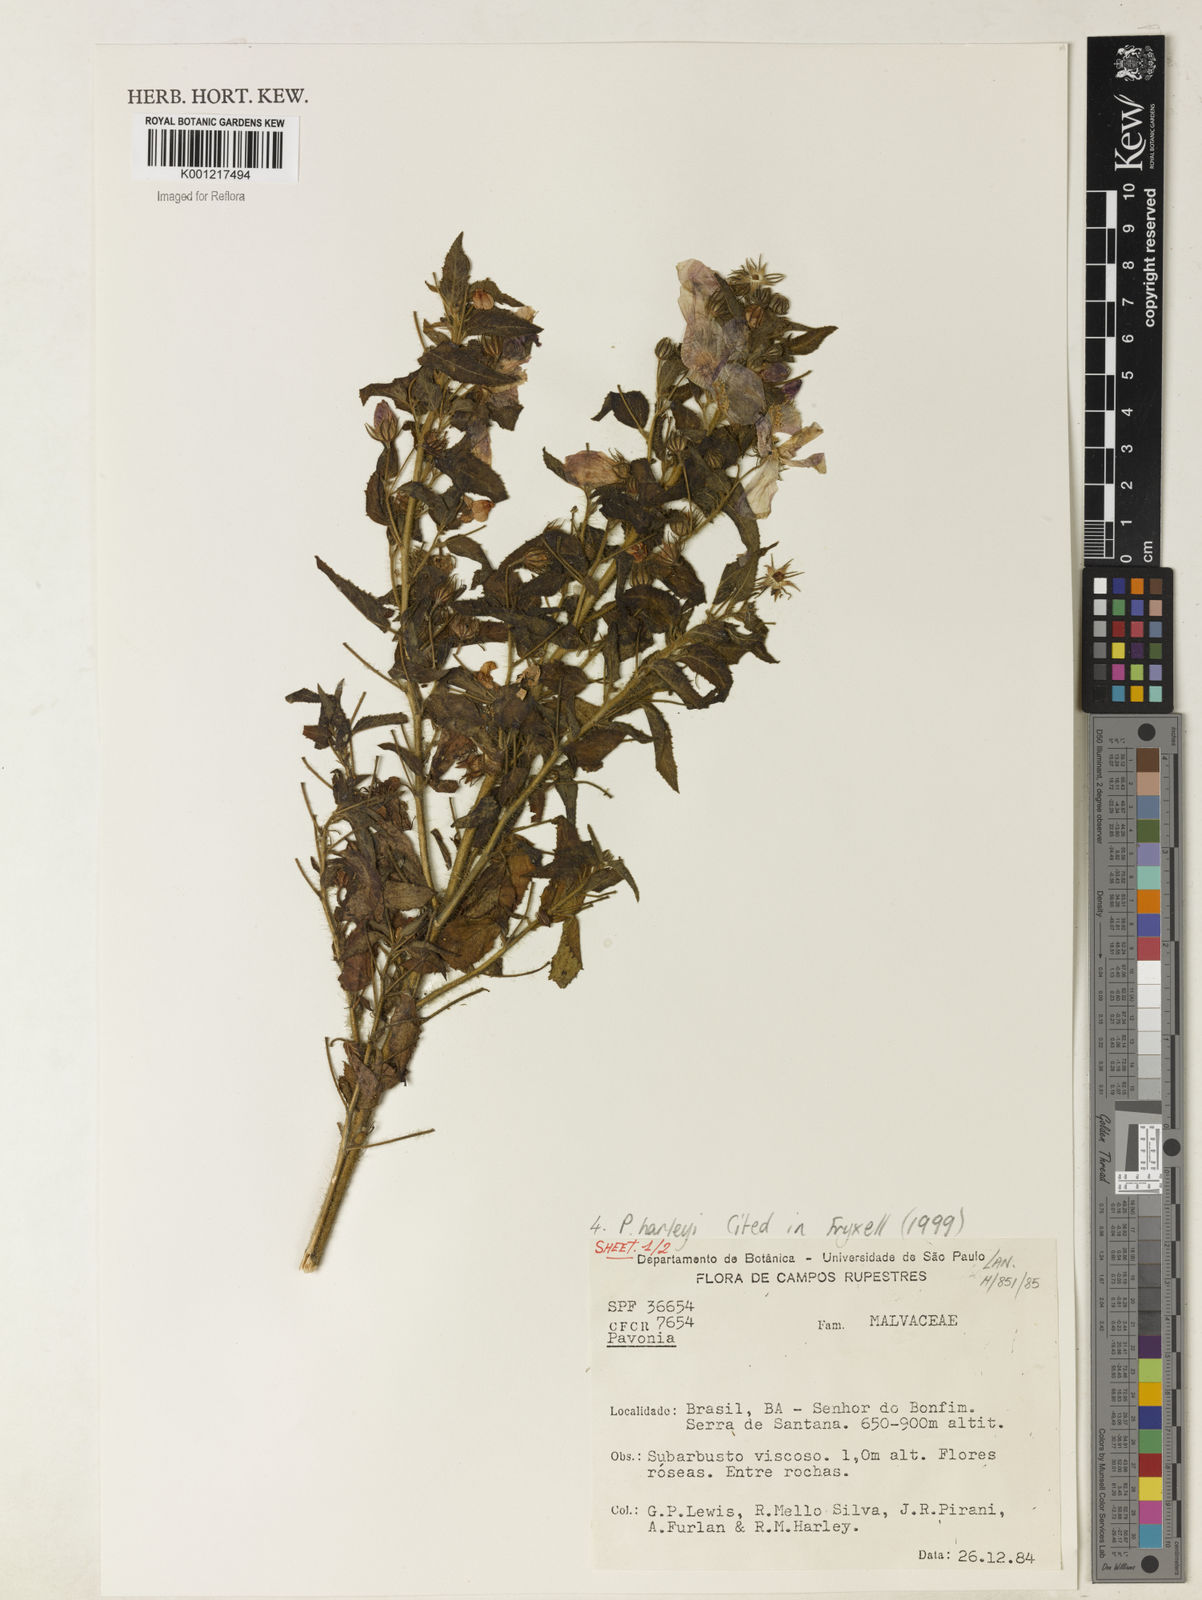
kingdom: Plantae
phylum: Tracheophyta
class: Magnoliopsida
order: Malvales
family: Malvaceae
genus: Pavonia
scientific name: Pavonia harleyi
